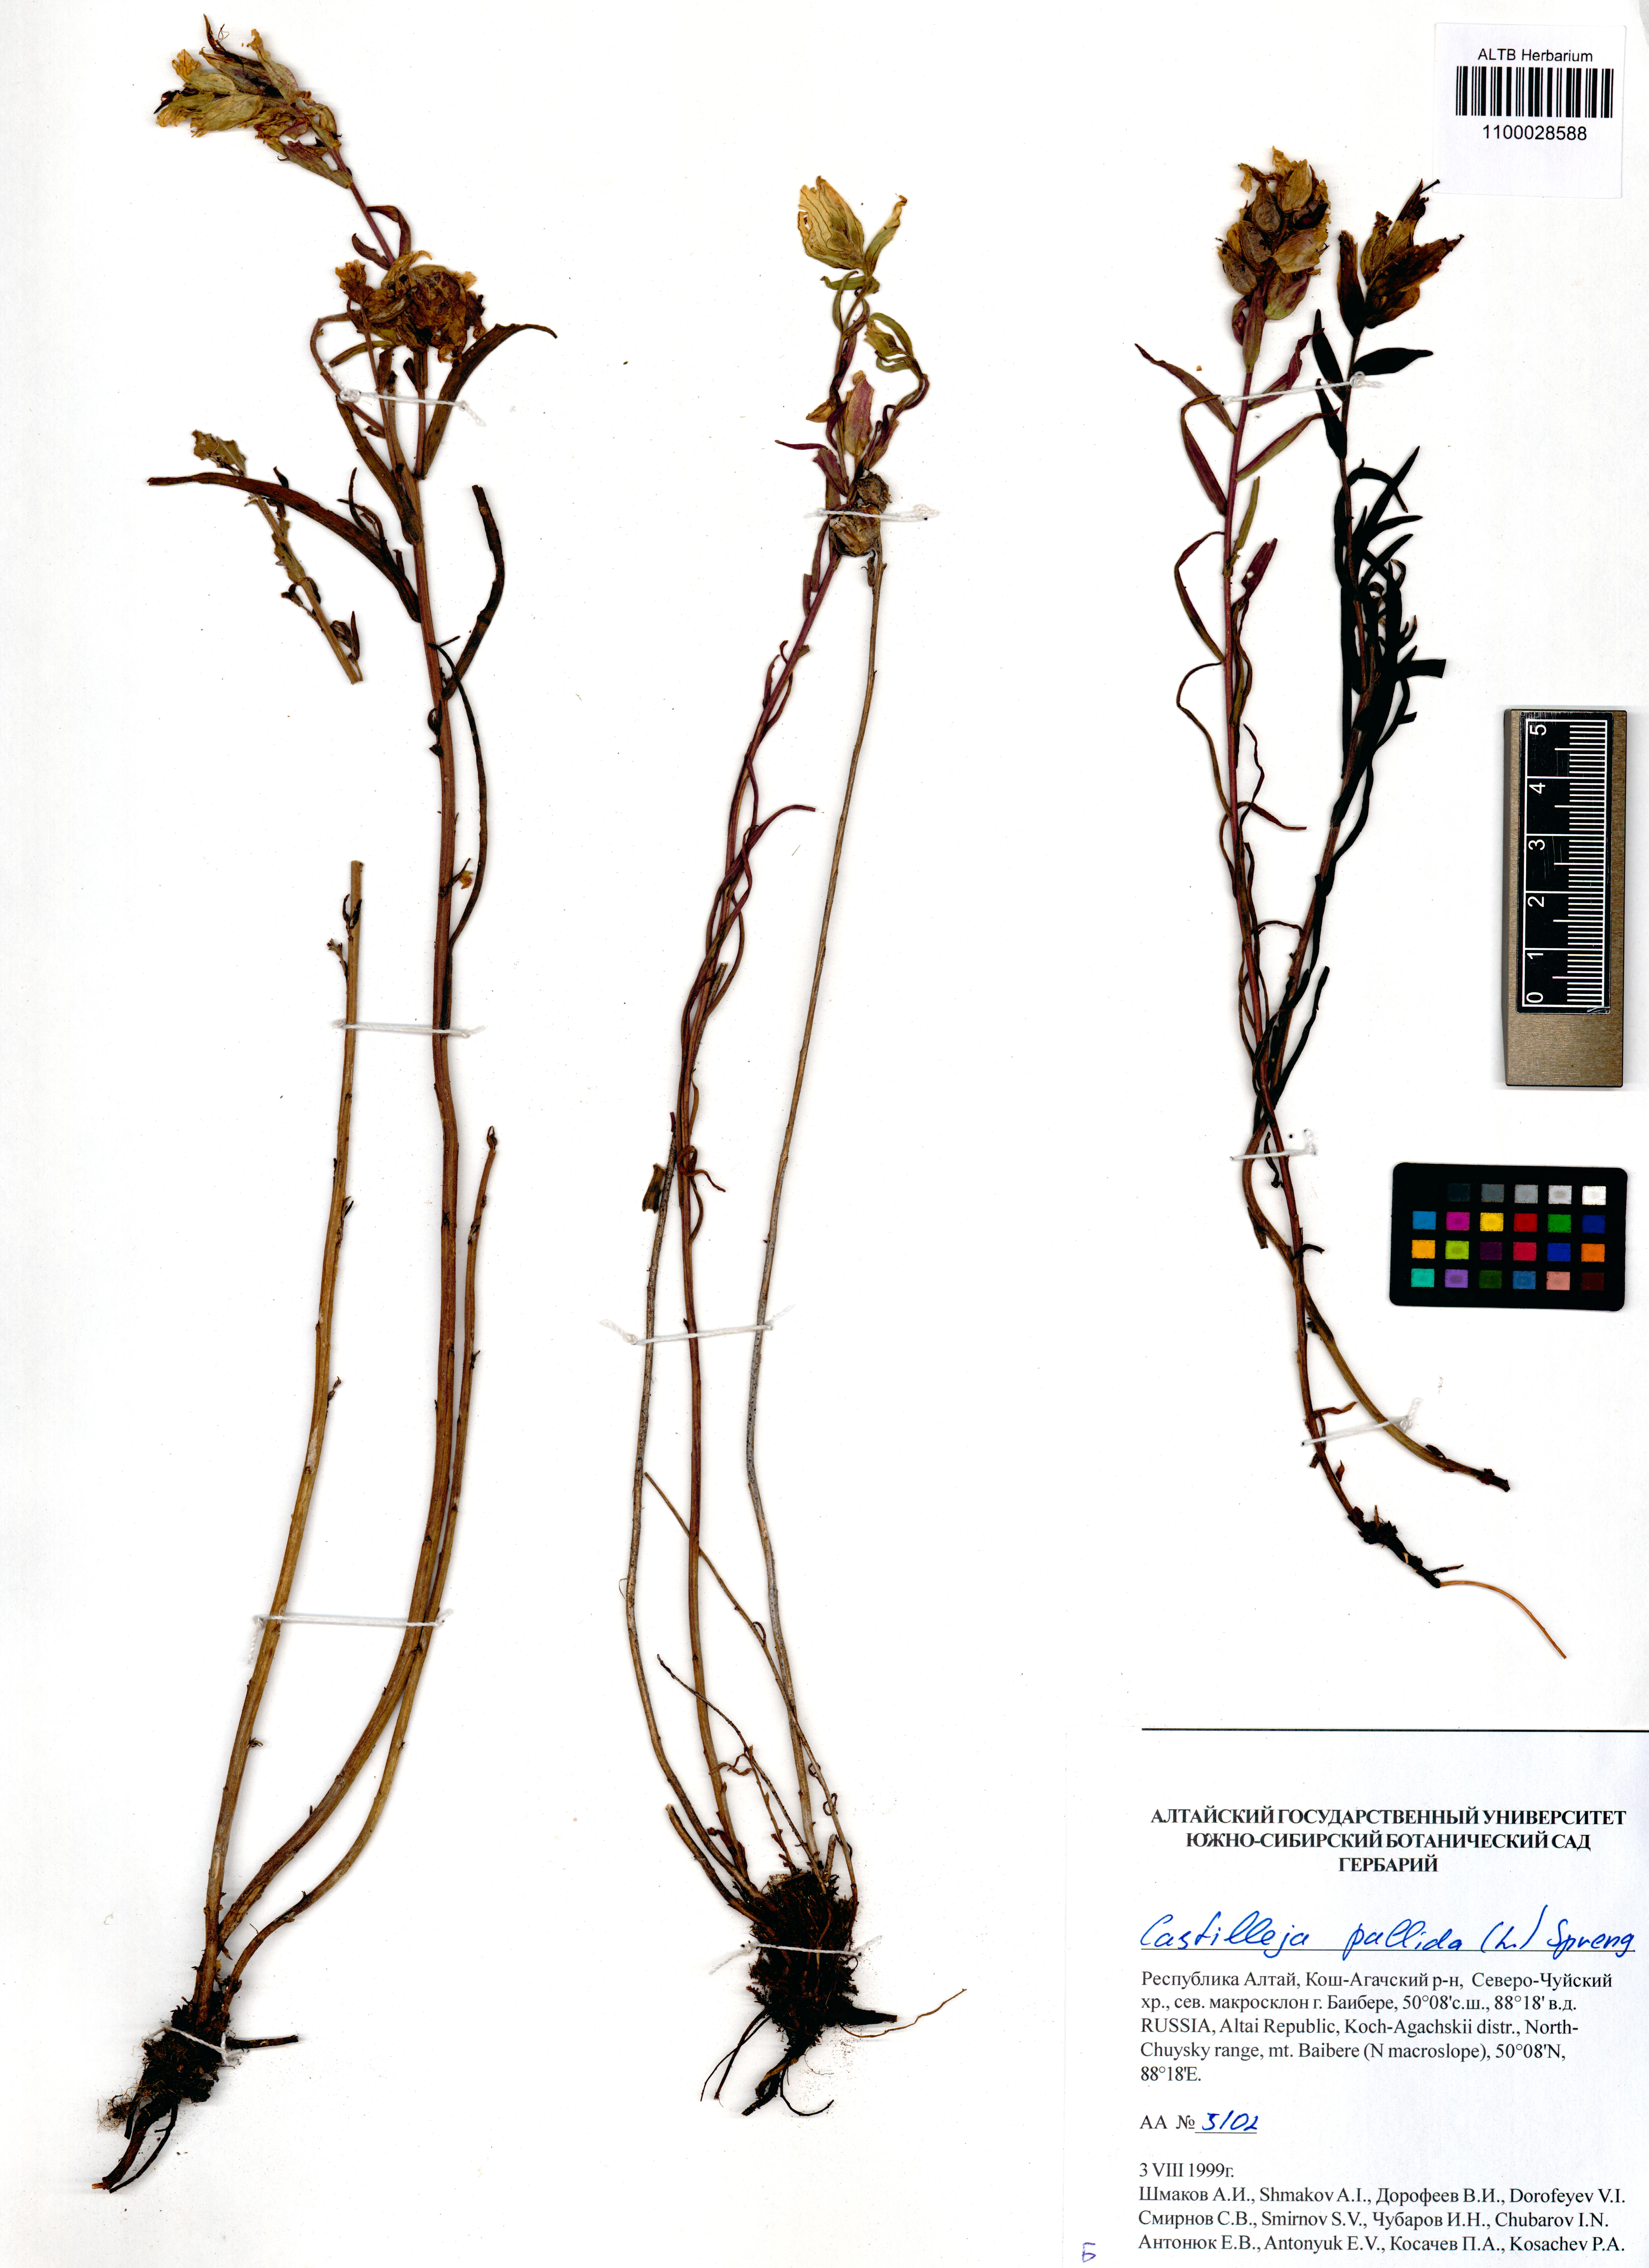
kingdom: Plantae
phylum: Tracheophyta
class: Magnoliopsida
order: Lamiales
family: Orobanchaceae
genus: Castilleja
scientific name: Castilleja pallida
